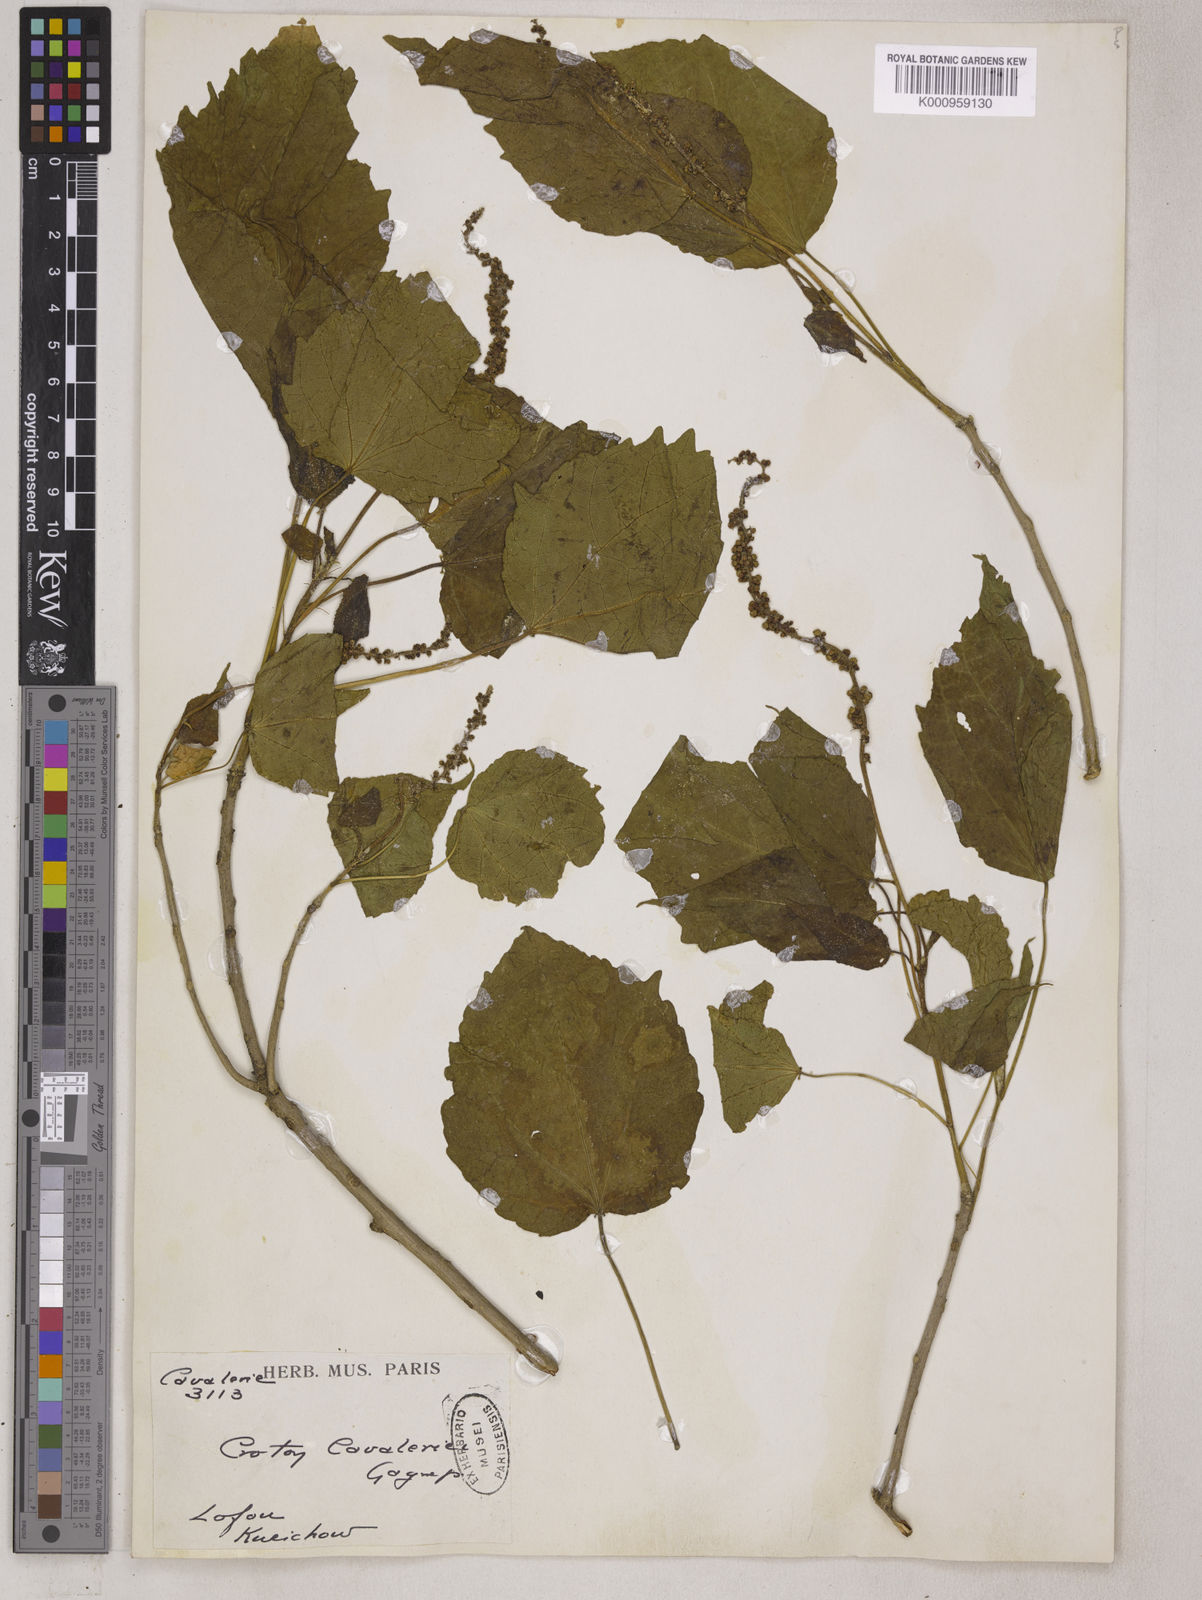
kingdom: Plantae
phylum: Tracheophyta
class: Magnoliopsida
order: Malpighiales
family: Euphorbiaceae
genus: Croton
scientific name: Croton euryphyllus
